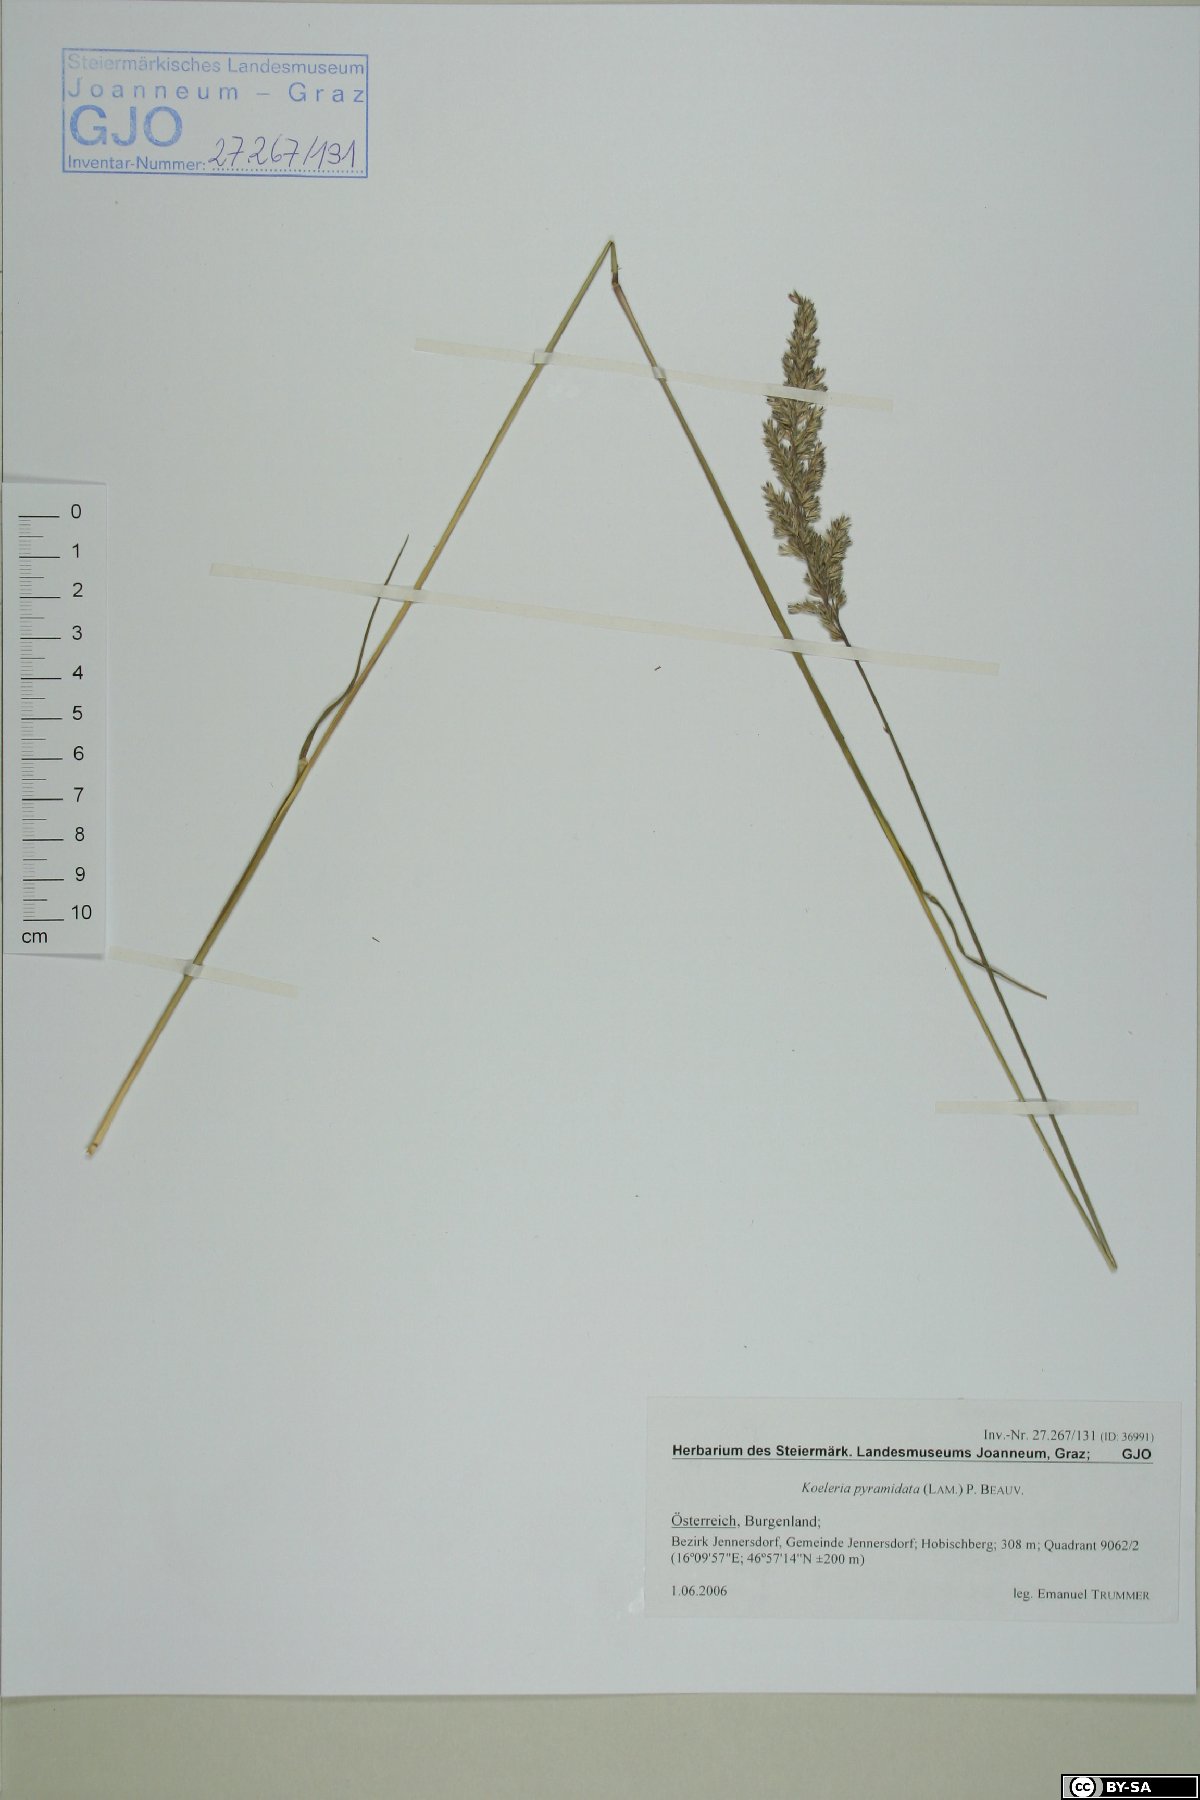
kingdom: Plantae
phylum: Tracheophyta
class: Liliopsida
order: Poales
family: Poaceae
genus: Koeleria
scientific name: Koeleria pyramidata
